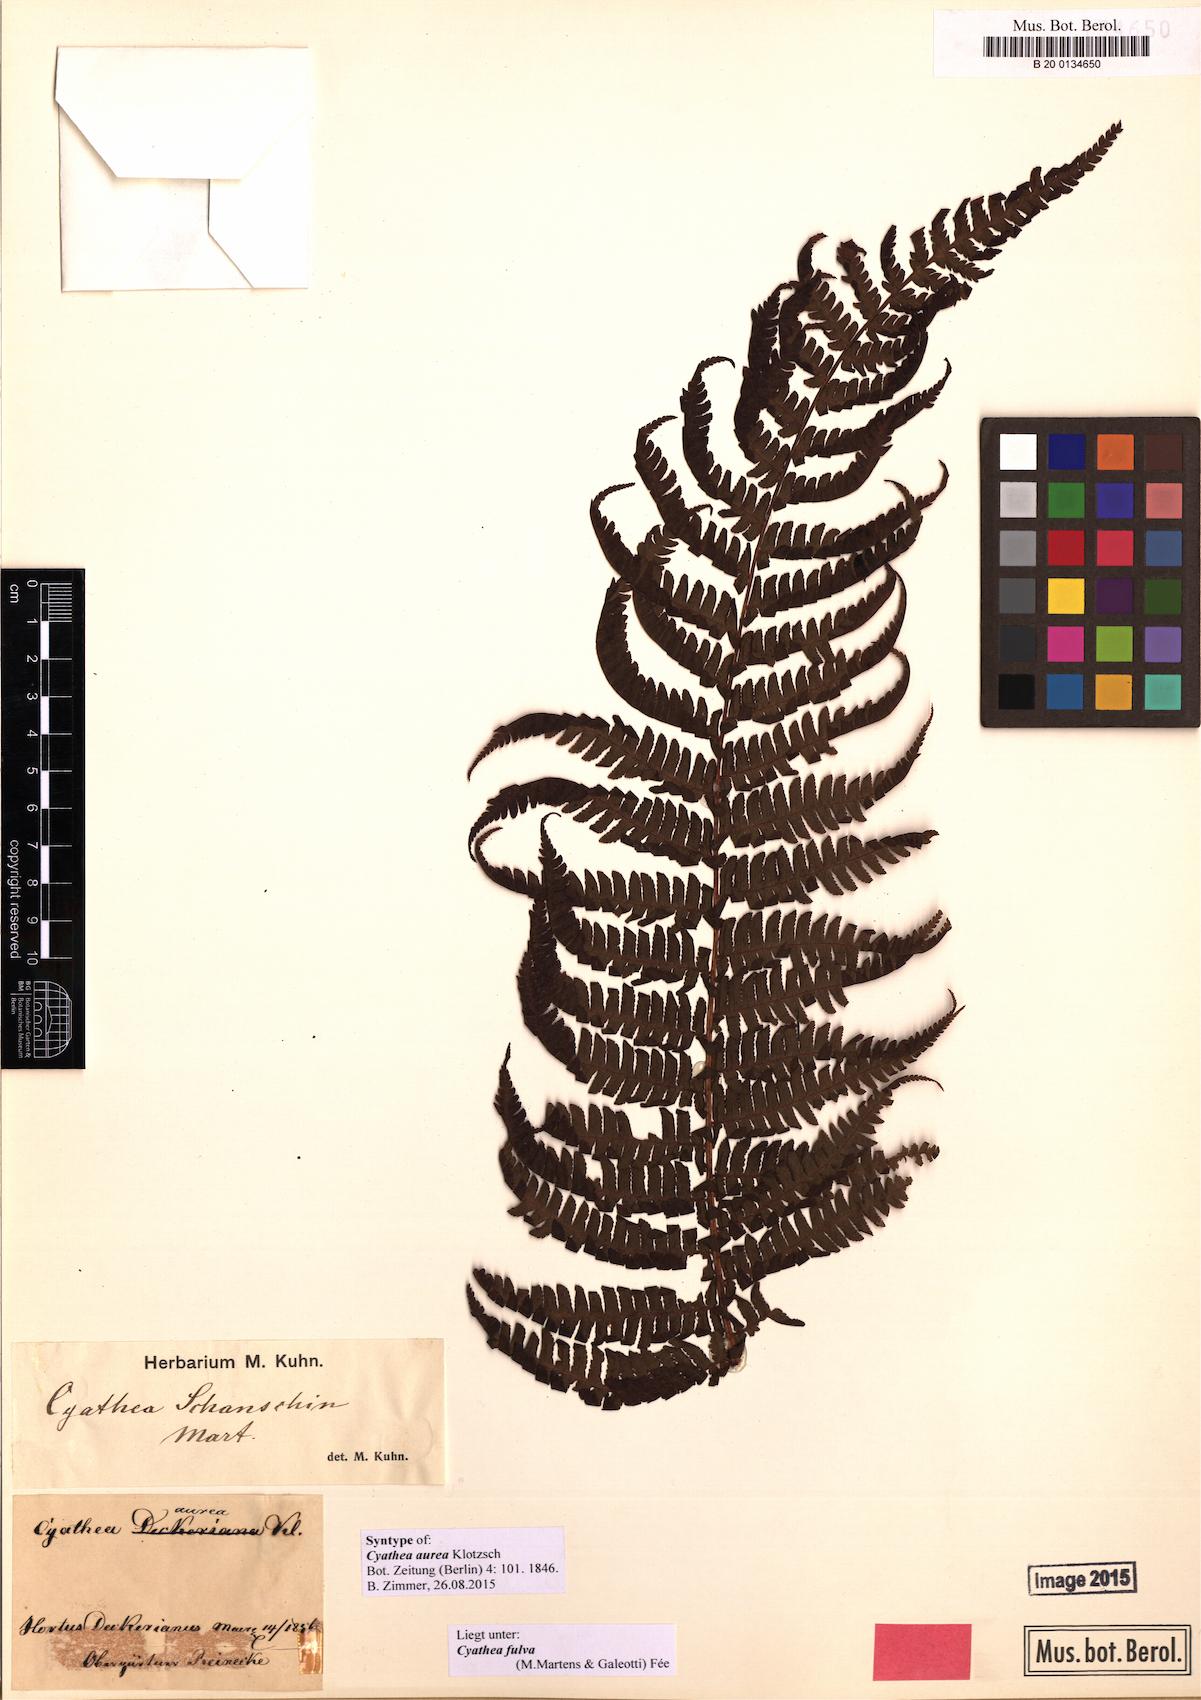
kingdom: Plantae
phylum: Tracheophyta
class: Polypodiopsida
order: Cyatheales
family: Cyatheaceae
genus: Cyathea
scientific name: Cyathea fulva
